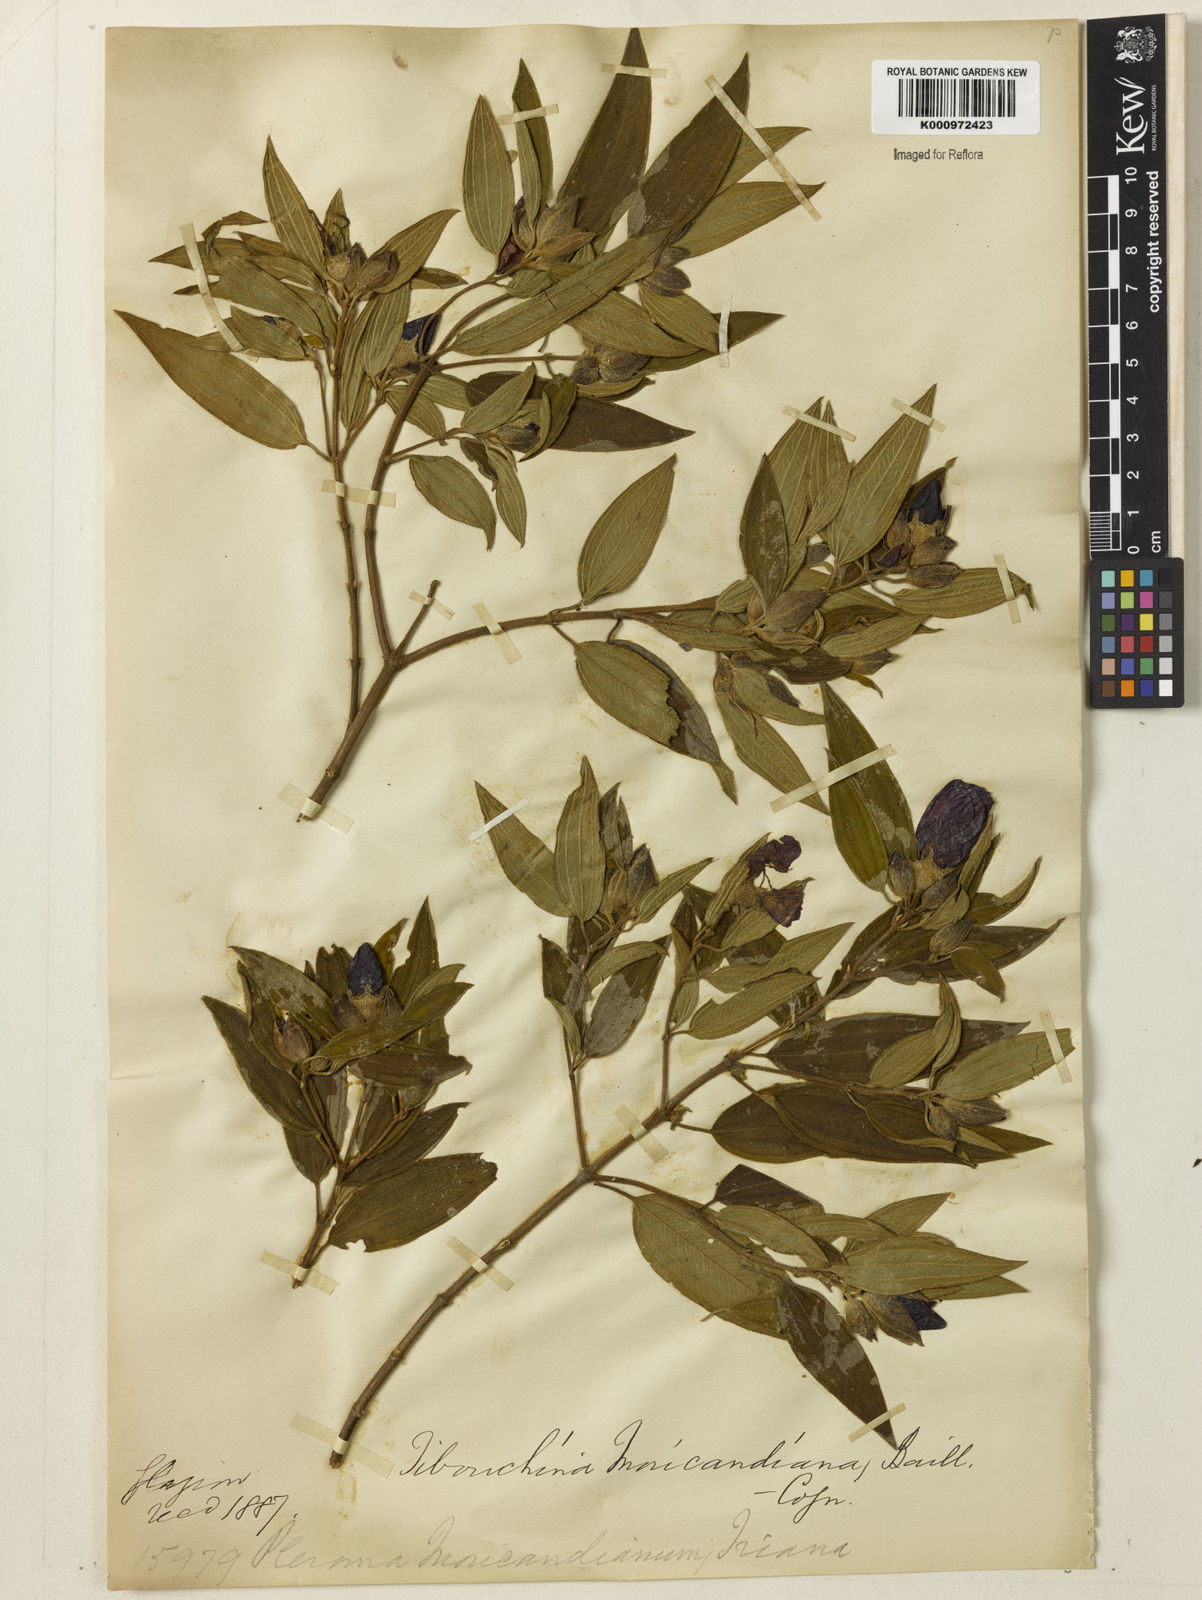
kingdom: Plantae
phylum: Tracheophyta
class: Magnoliopsida
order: Myrtales
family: Melastomataceae
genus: Pleroma
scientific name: Pleroma gaudichaudianum
